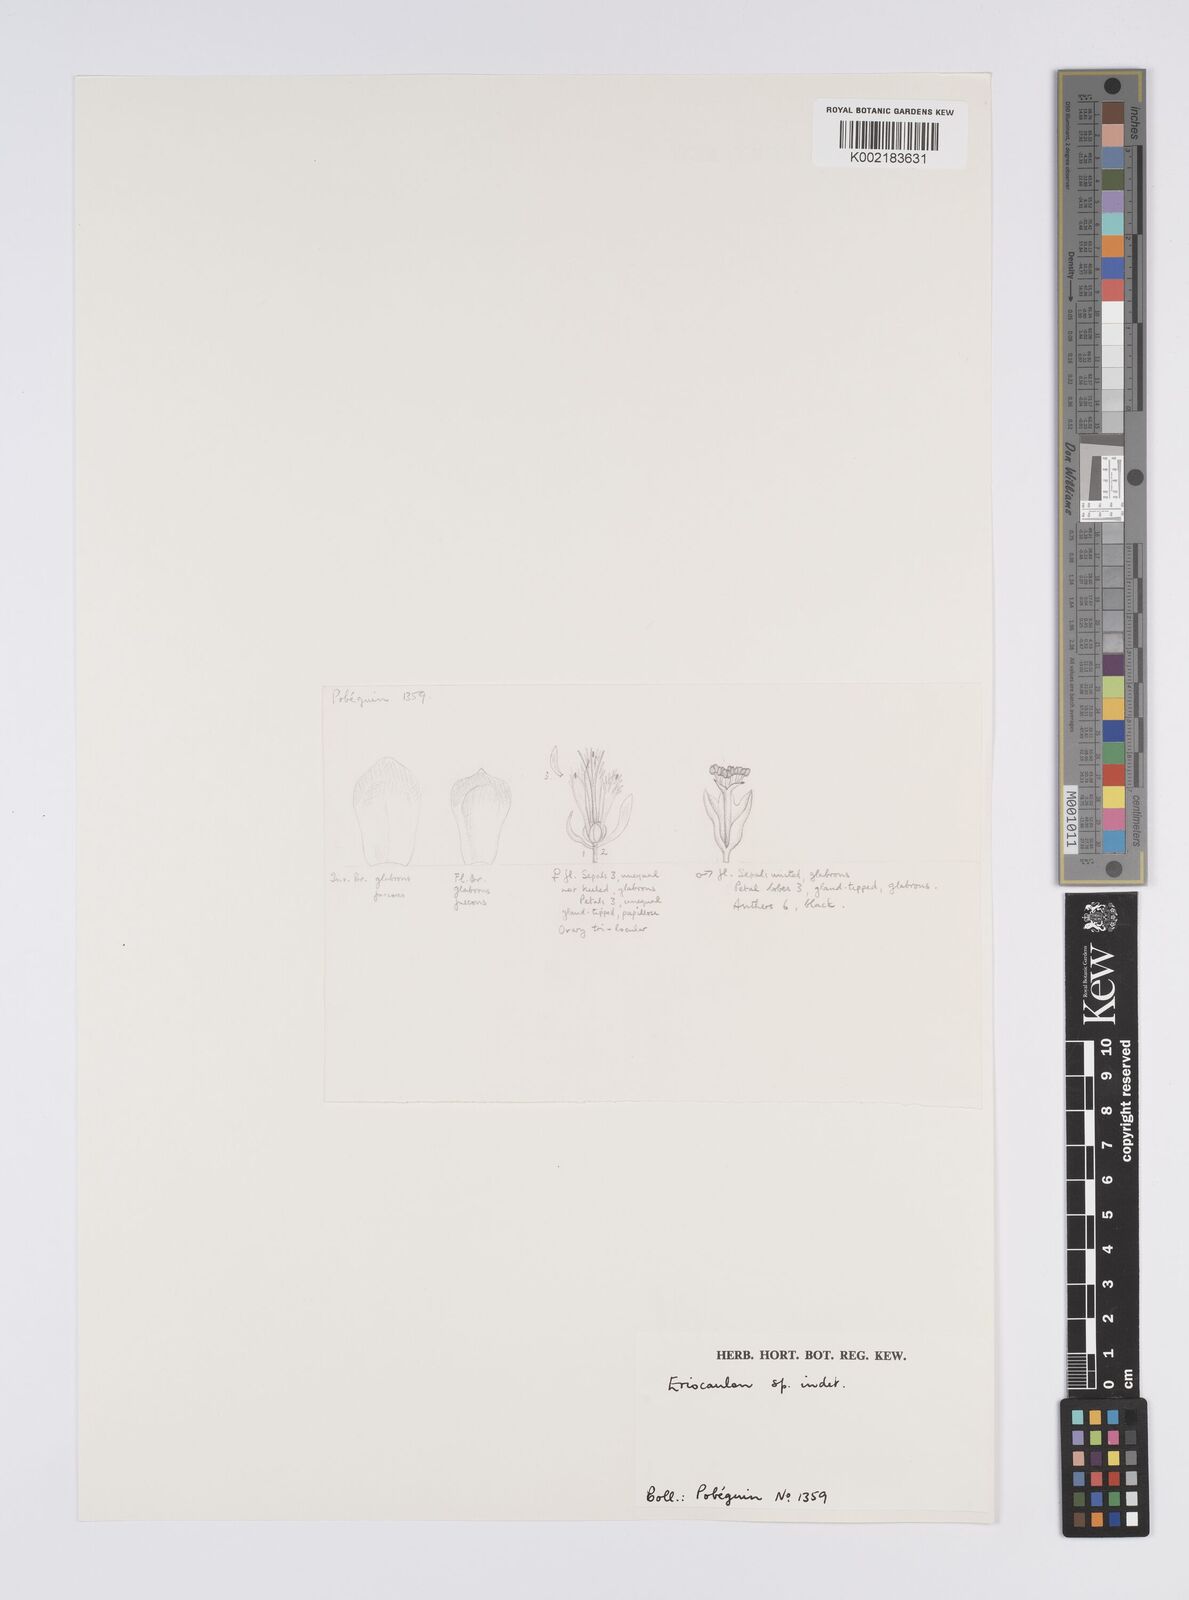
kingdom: Plantae
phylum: Tracheophyta
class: Liliopsida
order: Poales
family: Eriocaulaceae
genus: Eriocaulon
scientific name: Eriocaulon
